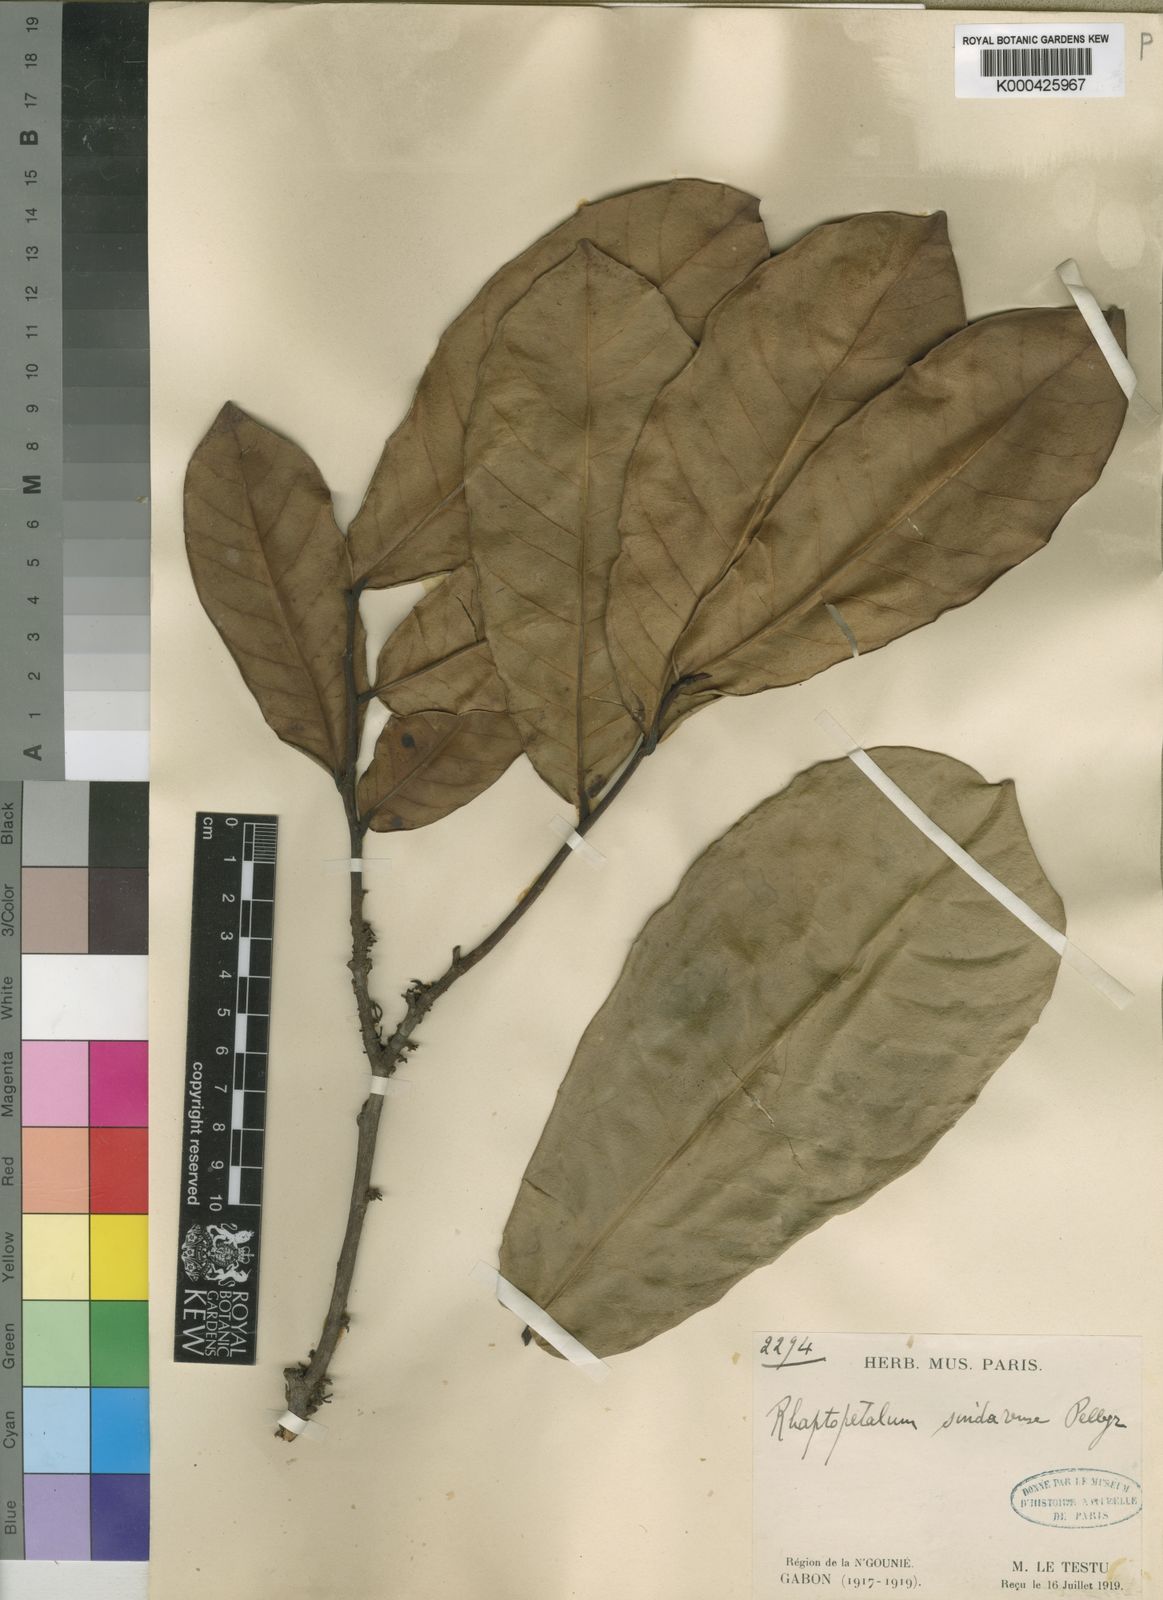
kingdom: Plantae
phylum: Tracheophyta
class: Magnoliopsida
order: Ericales
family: Lecythidaceae
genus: Rhaptopetalum
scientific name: Rhaptopetalum sindarense
